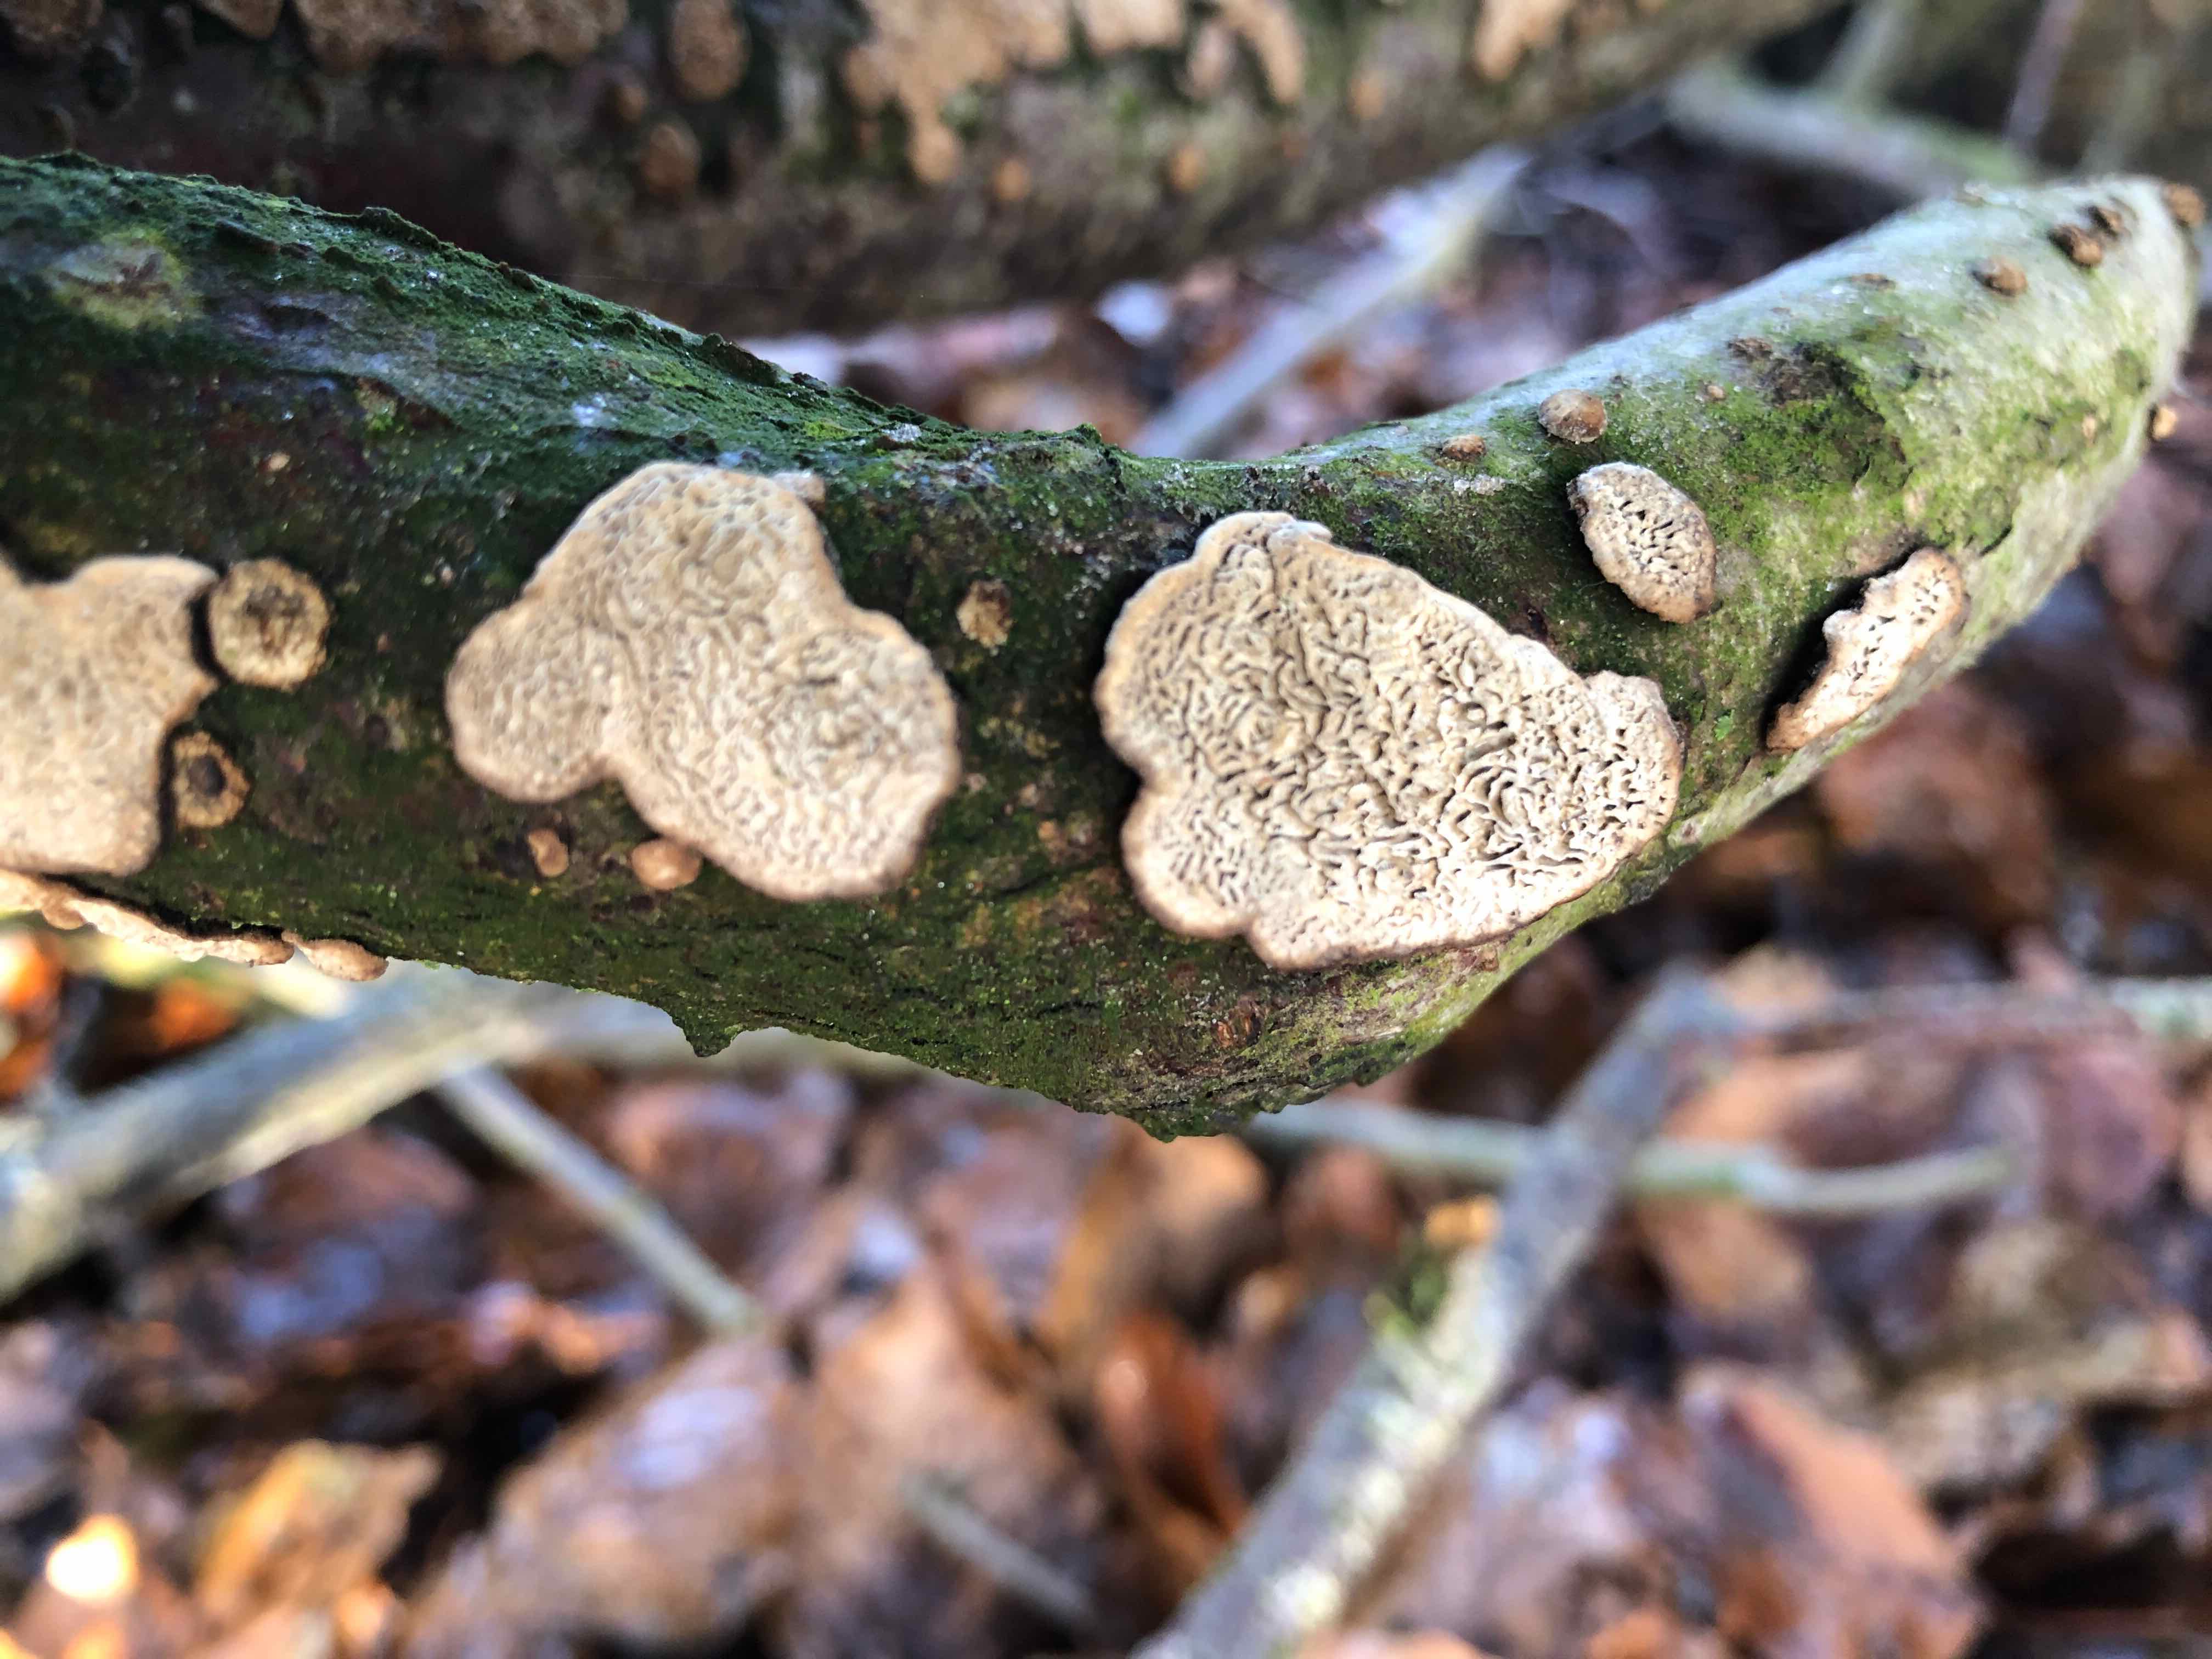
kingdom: Fungi
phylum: Basidiomycota
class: Agaricomycetes
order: Polyporales
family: Polyporaceae
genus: Podofomes
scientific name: Podofomes mollis
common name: blød begporesvamp
